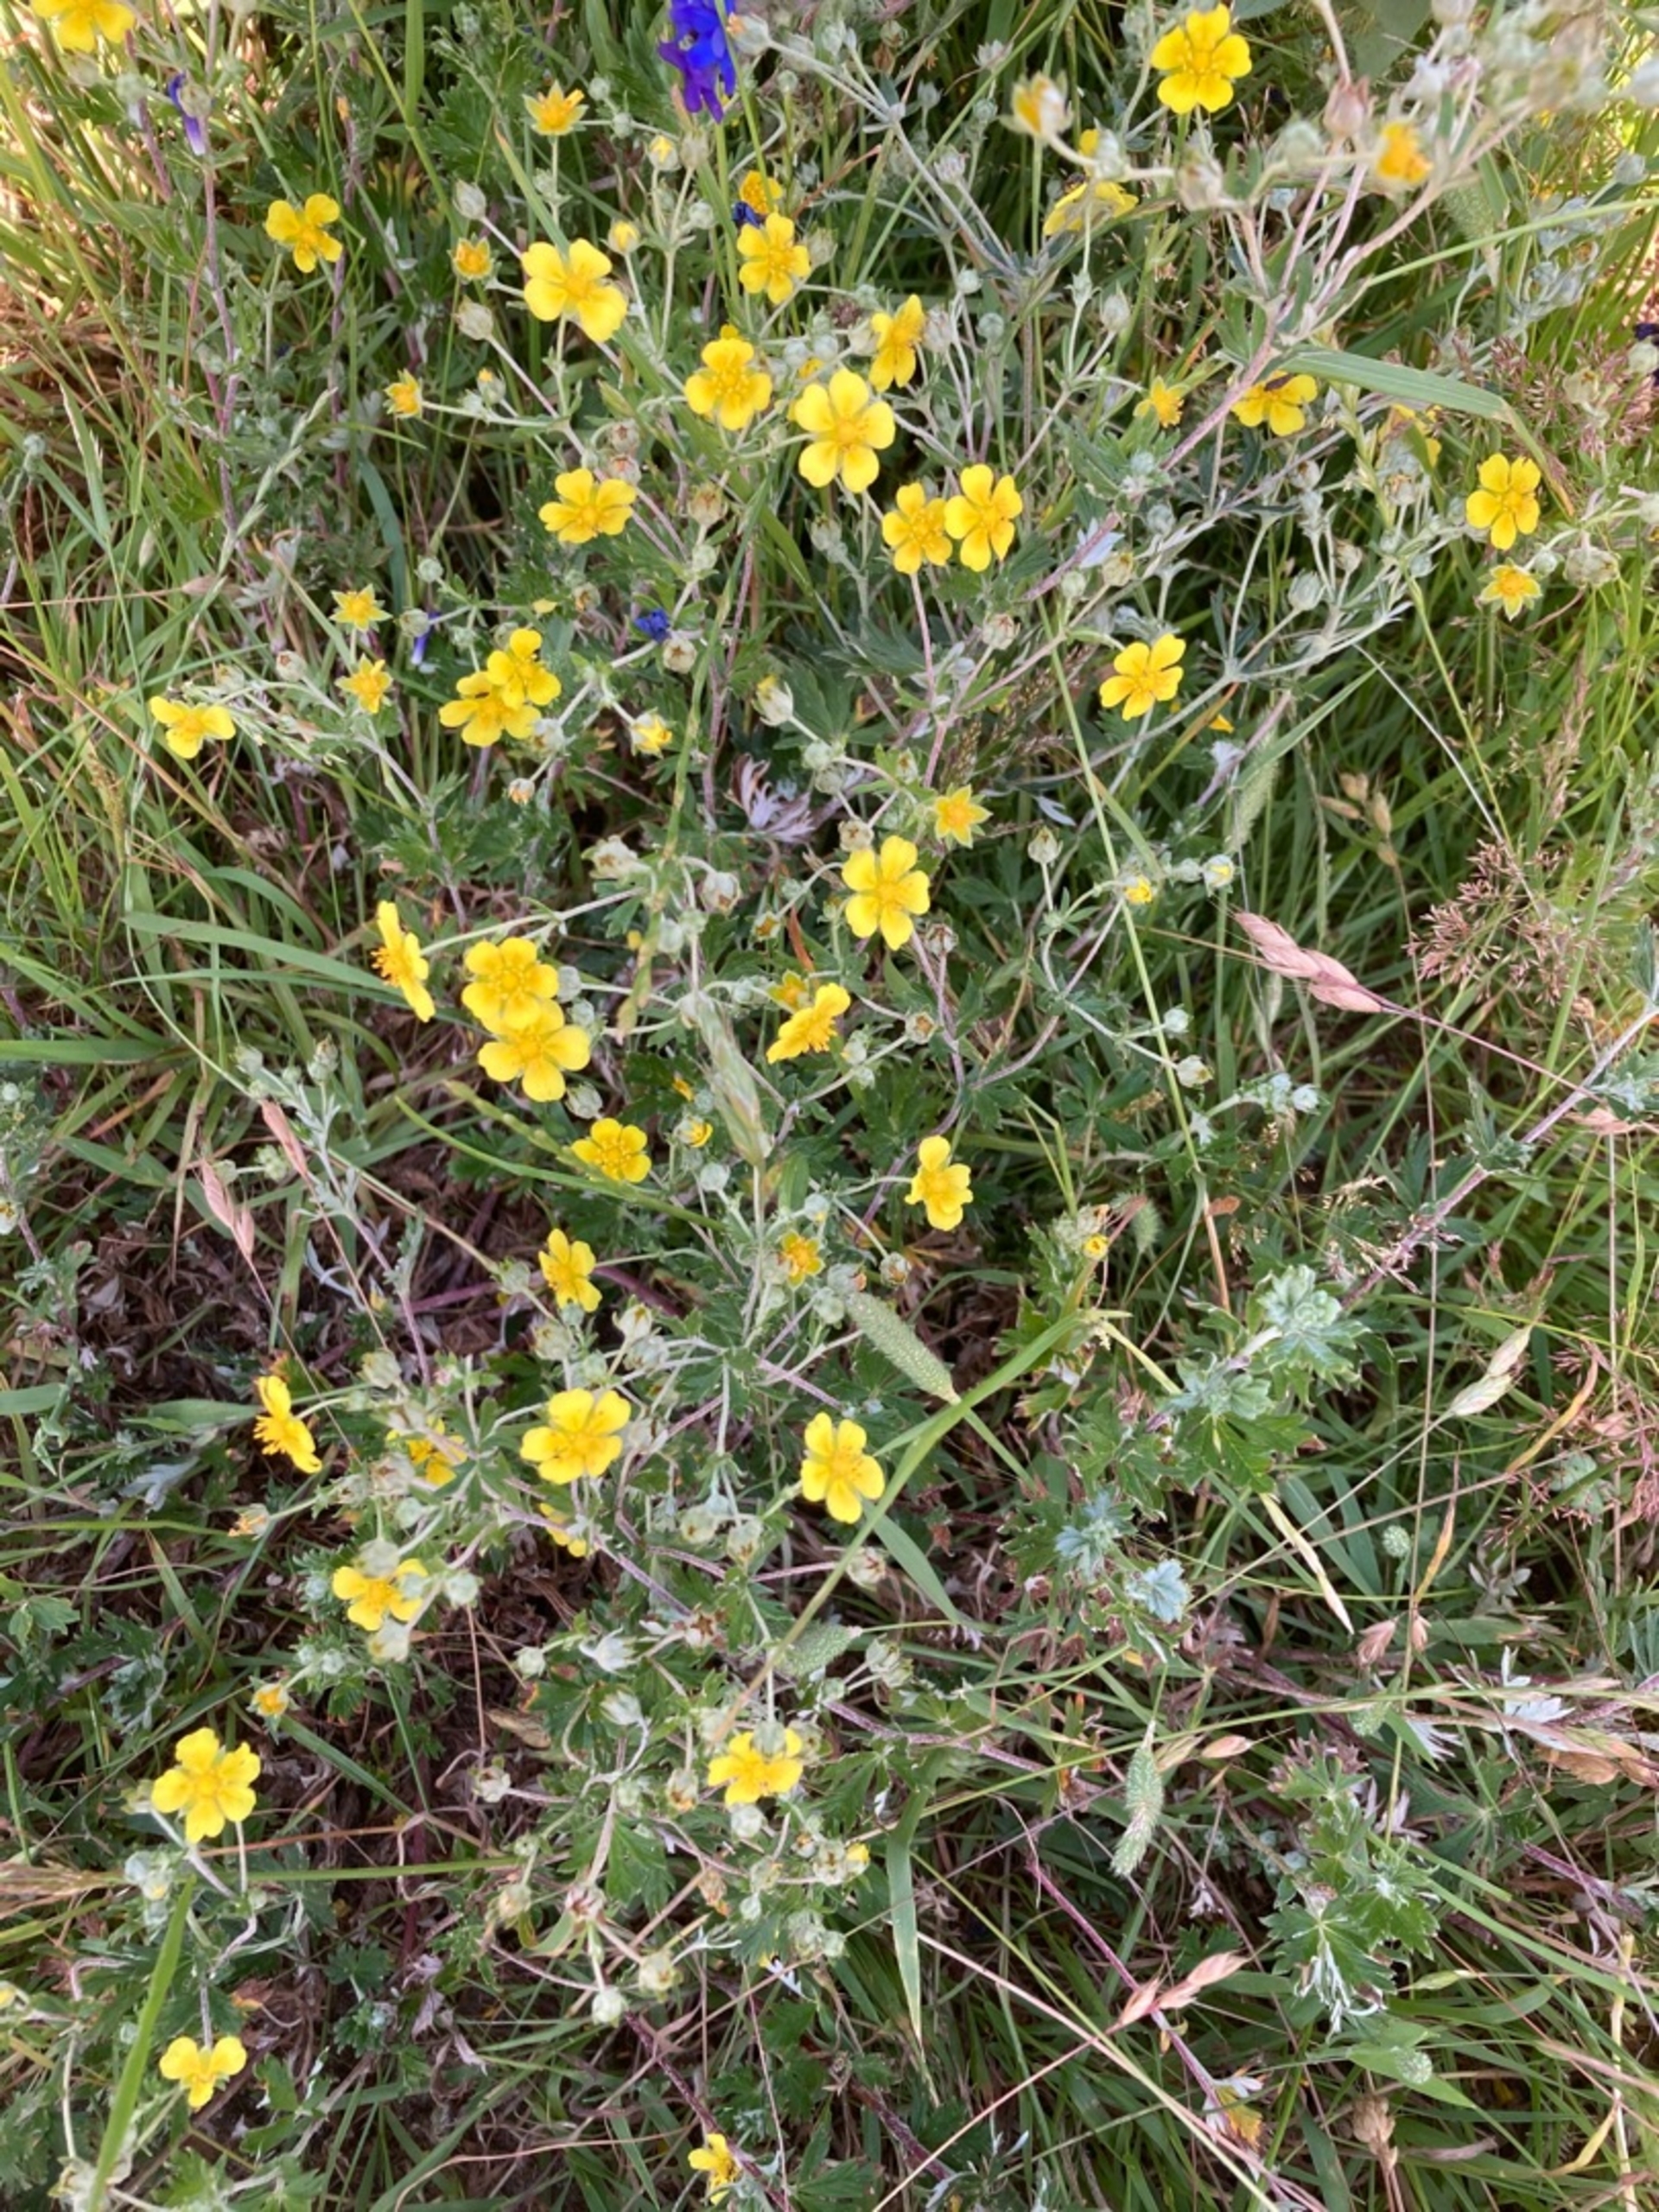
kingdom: Plantae
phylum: Tracheophyta
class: Magnoliopsida
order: Rosales
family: Rosaceae
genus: Potentilla
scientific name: Potentilla argentea
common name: Sølv-potentil
